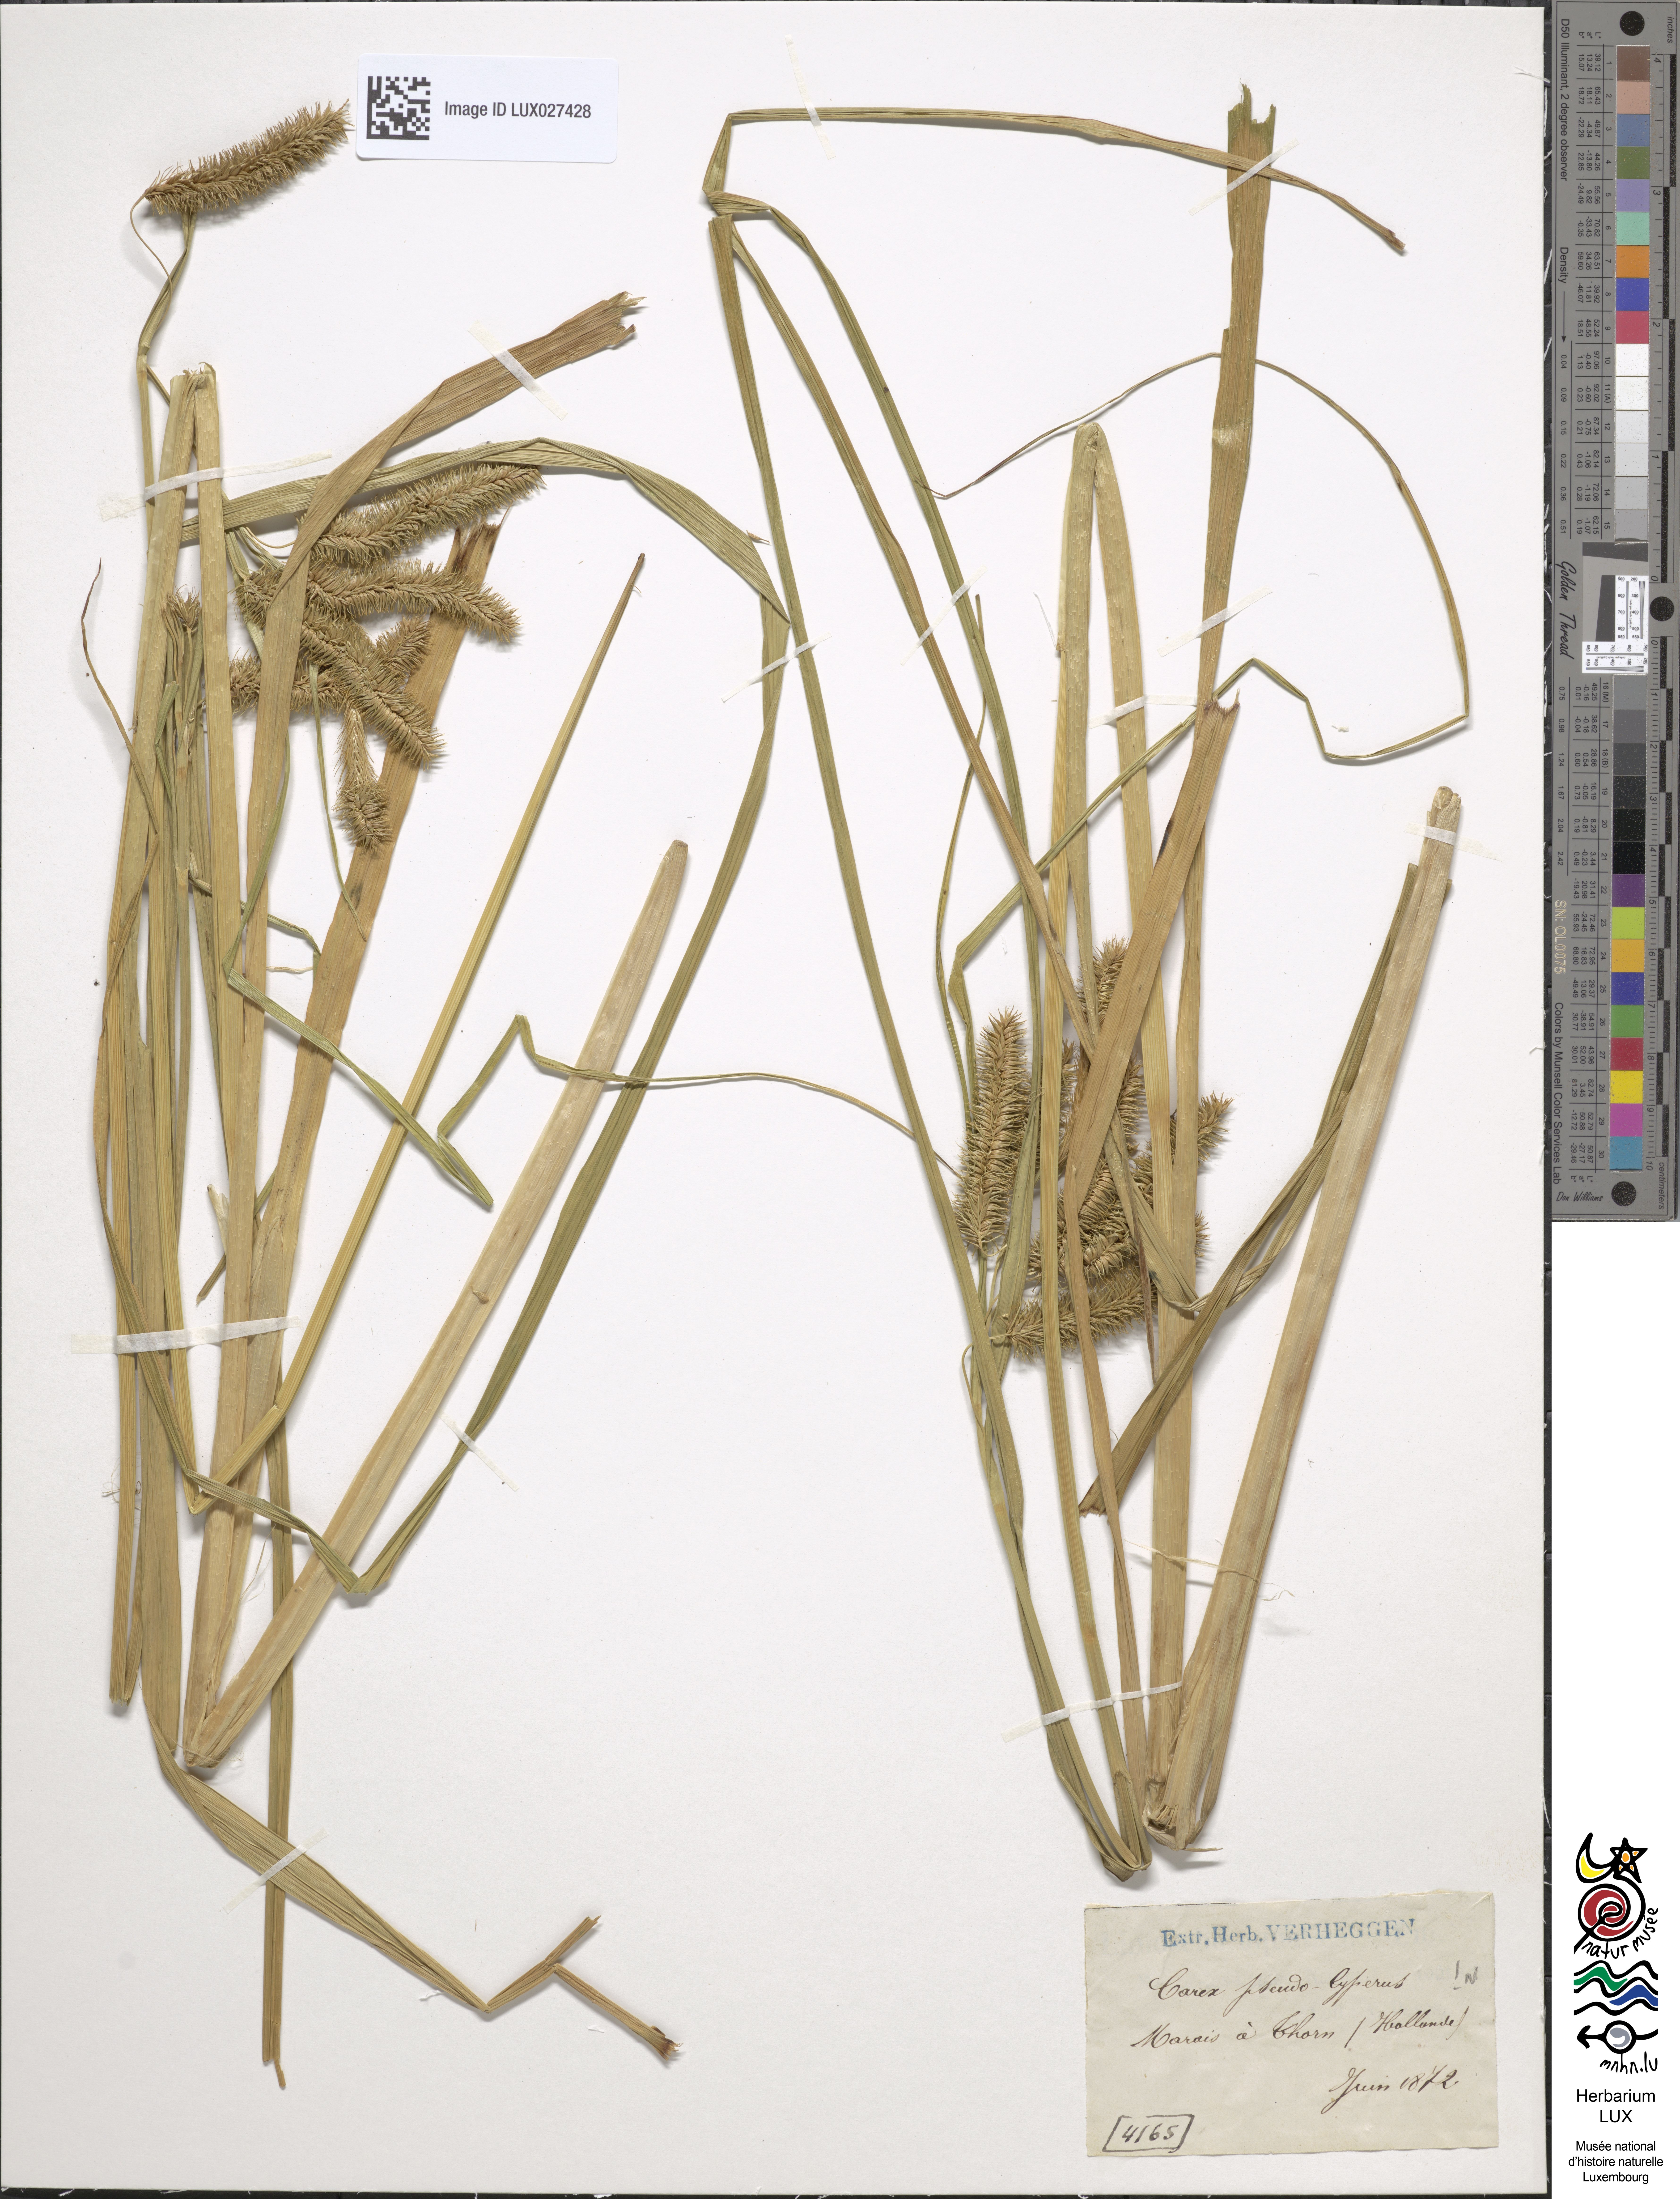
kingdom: Plantae
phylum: Tracheophyta
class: Liliopsida
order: Poales
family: Cyperaceae
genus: Carex
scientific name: Carex pseudocyperus
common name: Cyperus sedge
